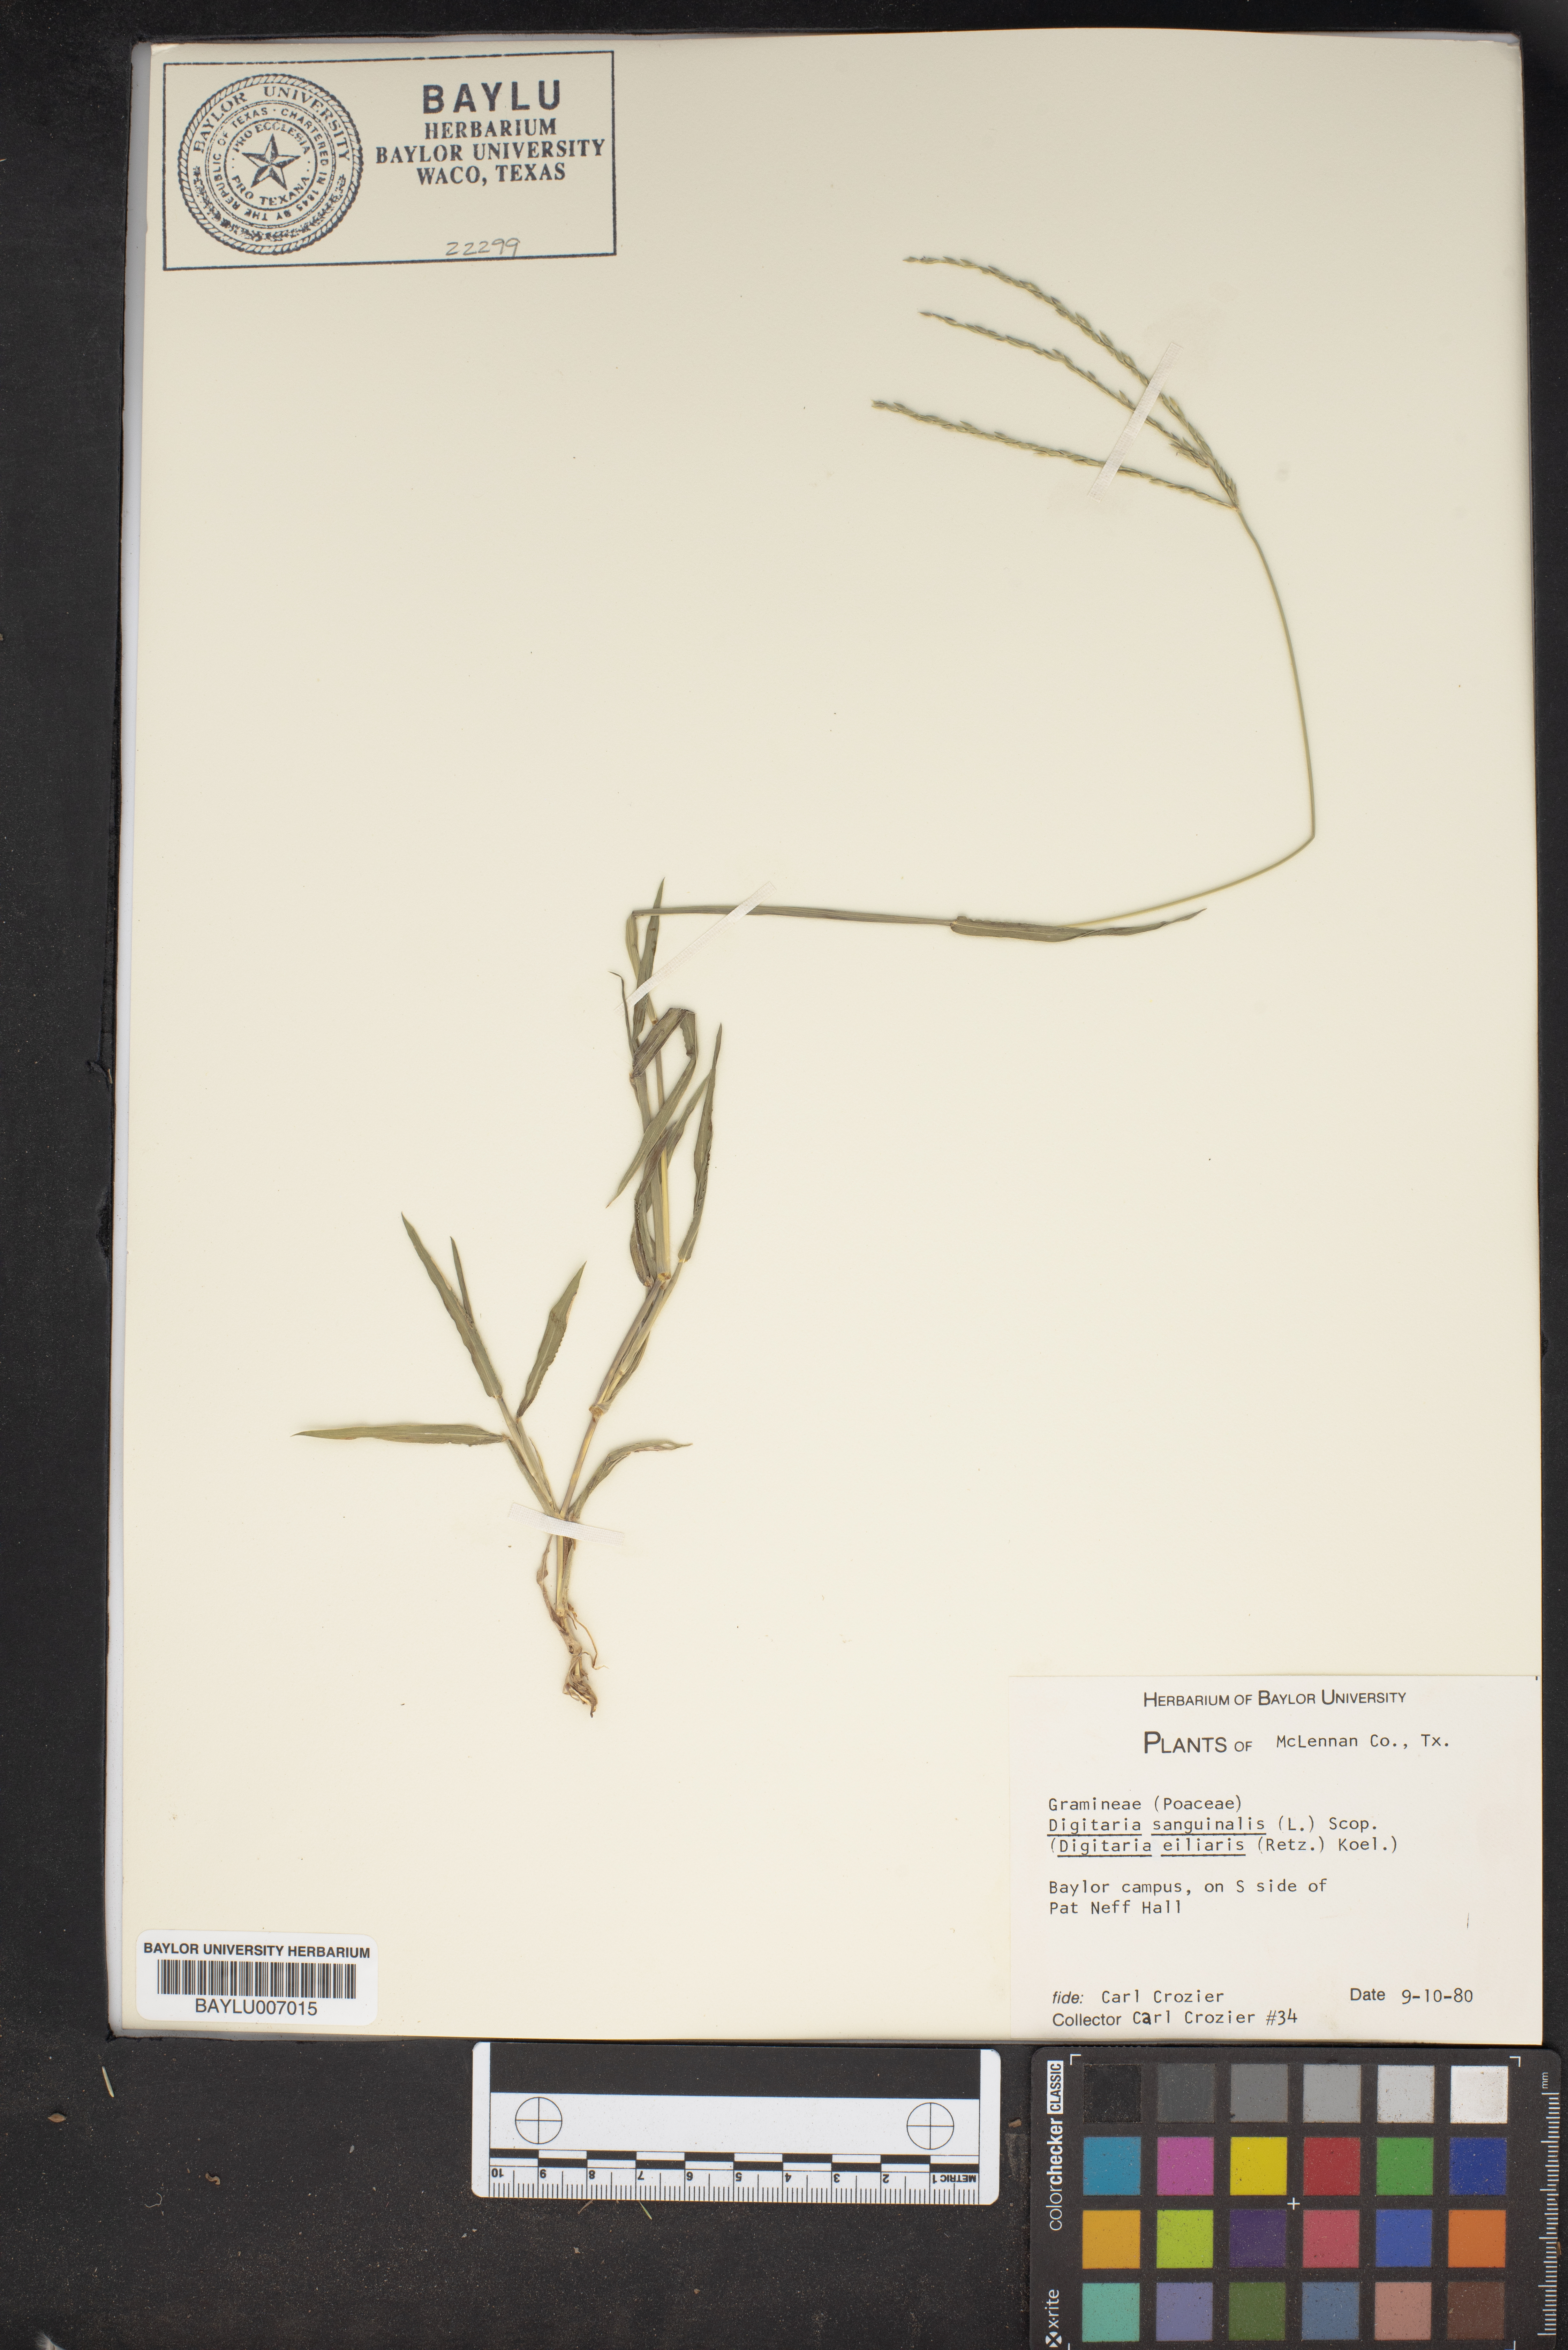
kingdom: Plantae
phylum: Tracheophyta
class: Liliopsida
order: Poales
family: Poaceae
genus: Digitaria
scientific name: Digitaria sanguinalis
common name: Hairy crabgrass
